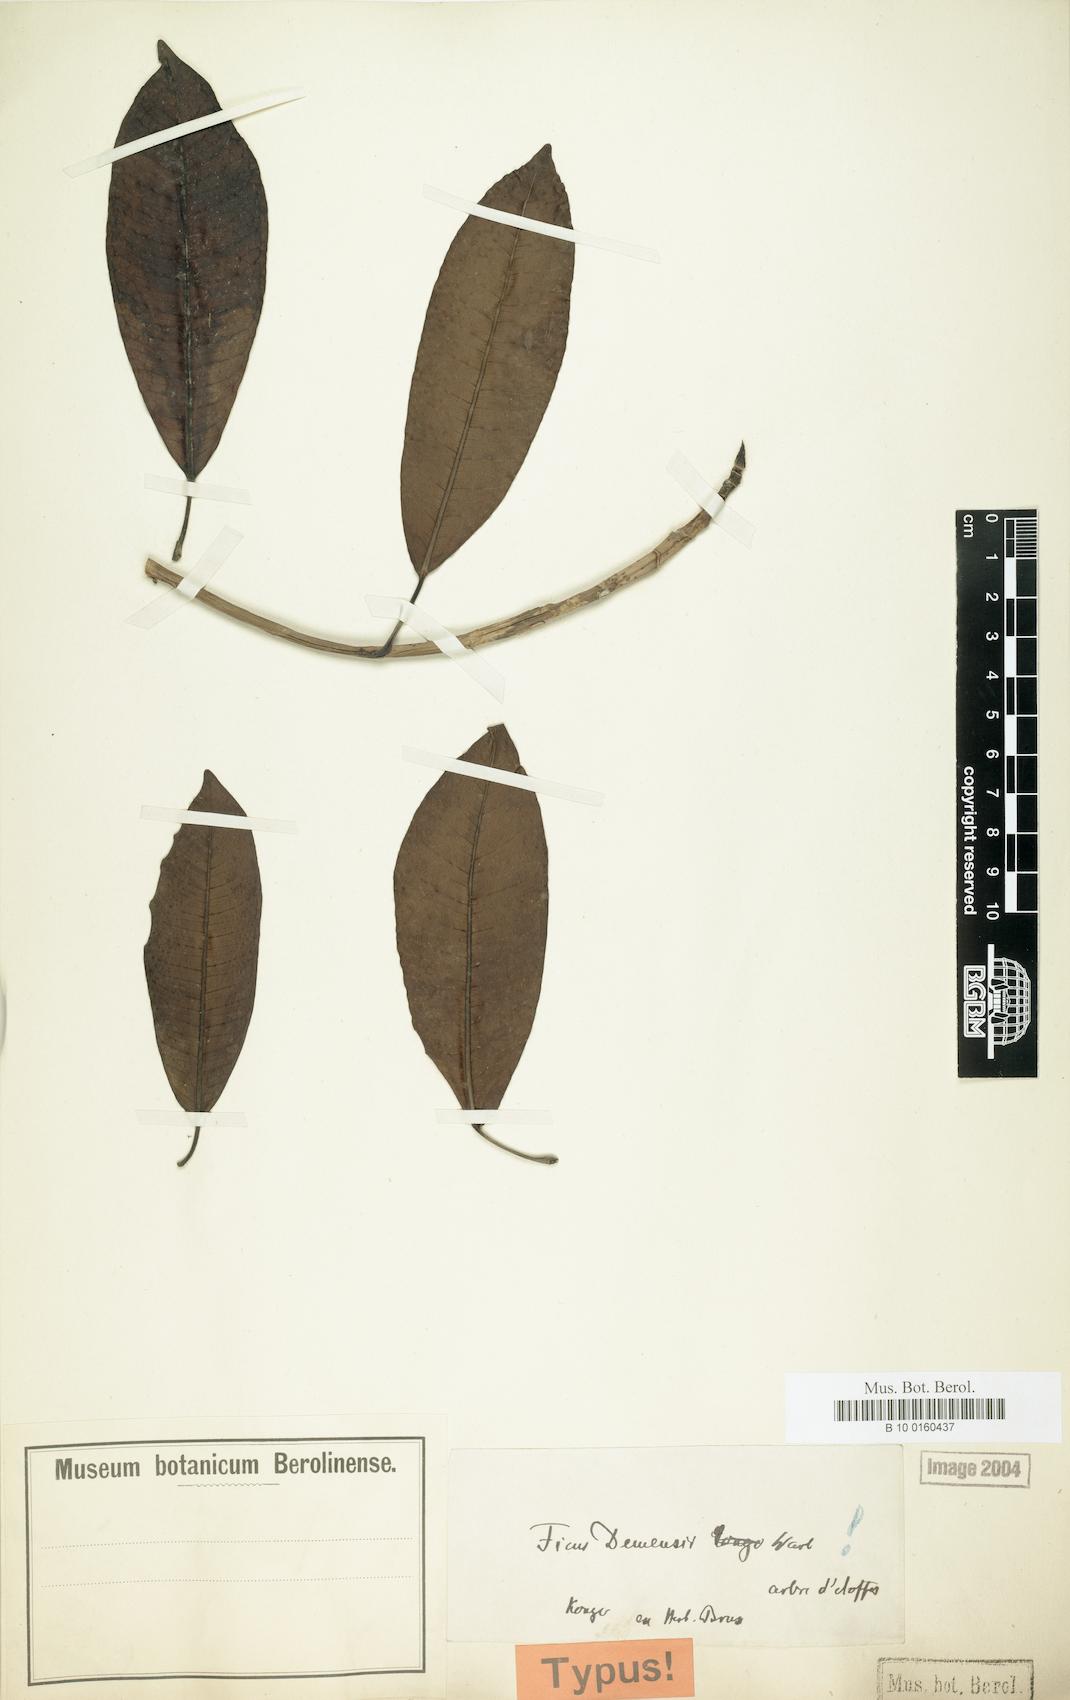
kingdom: Plantae
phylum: Tracheophyta
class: Magnoliopsida
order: Rosales
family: Moraceae
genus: Ficus
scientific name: Ficus demeusei
